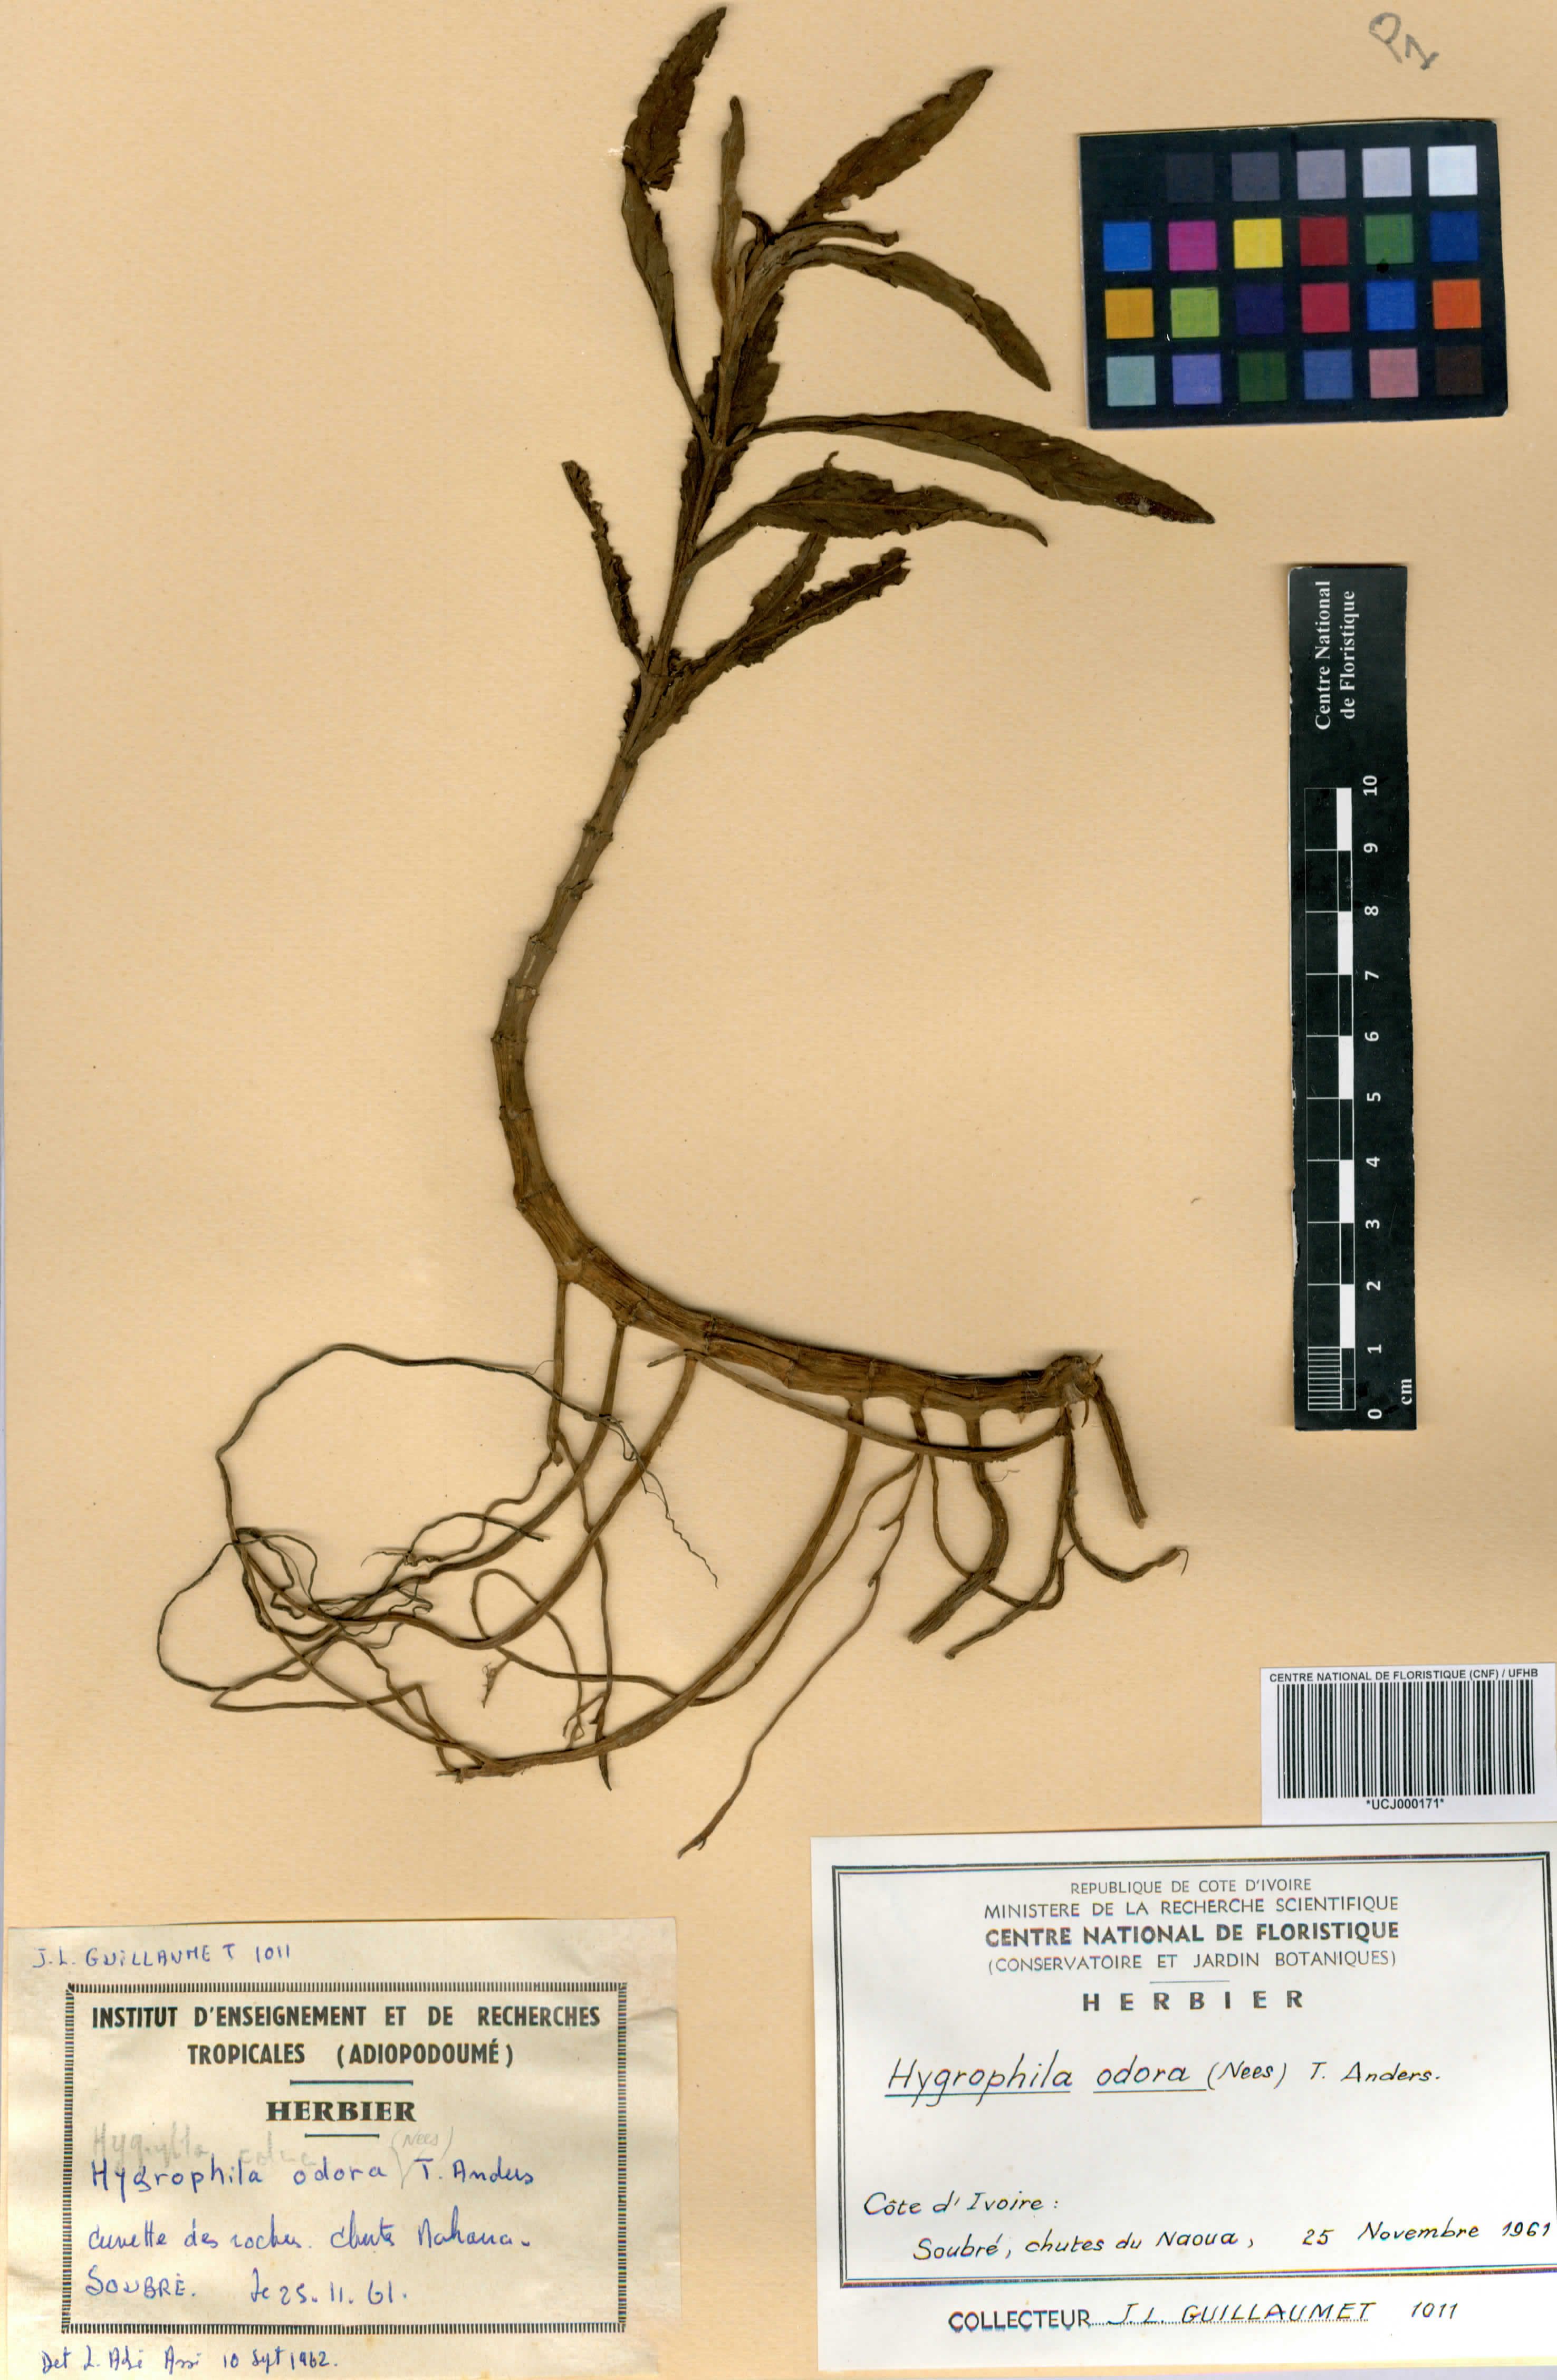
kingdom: Plantae
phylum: Tracheophyta
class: Magnoliopsida
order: Lamiales
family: Acanthaceae
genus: Hygrophila
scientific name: Hygrophila odora
